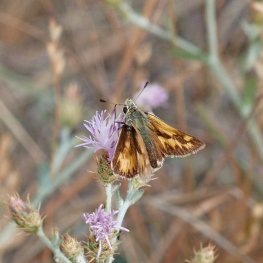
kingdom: Animalia
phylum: Arthropoda
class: Insecta
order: Lepidoptera
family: Hesperiidae
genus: Ochlodes
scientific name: Ochlodes sylvanoides
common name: Woodland Skipper
